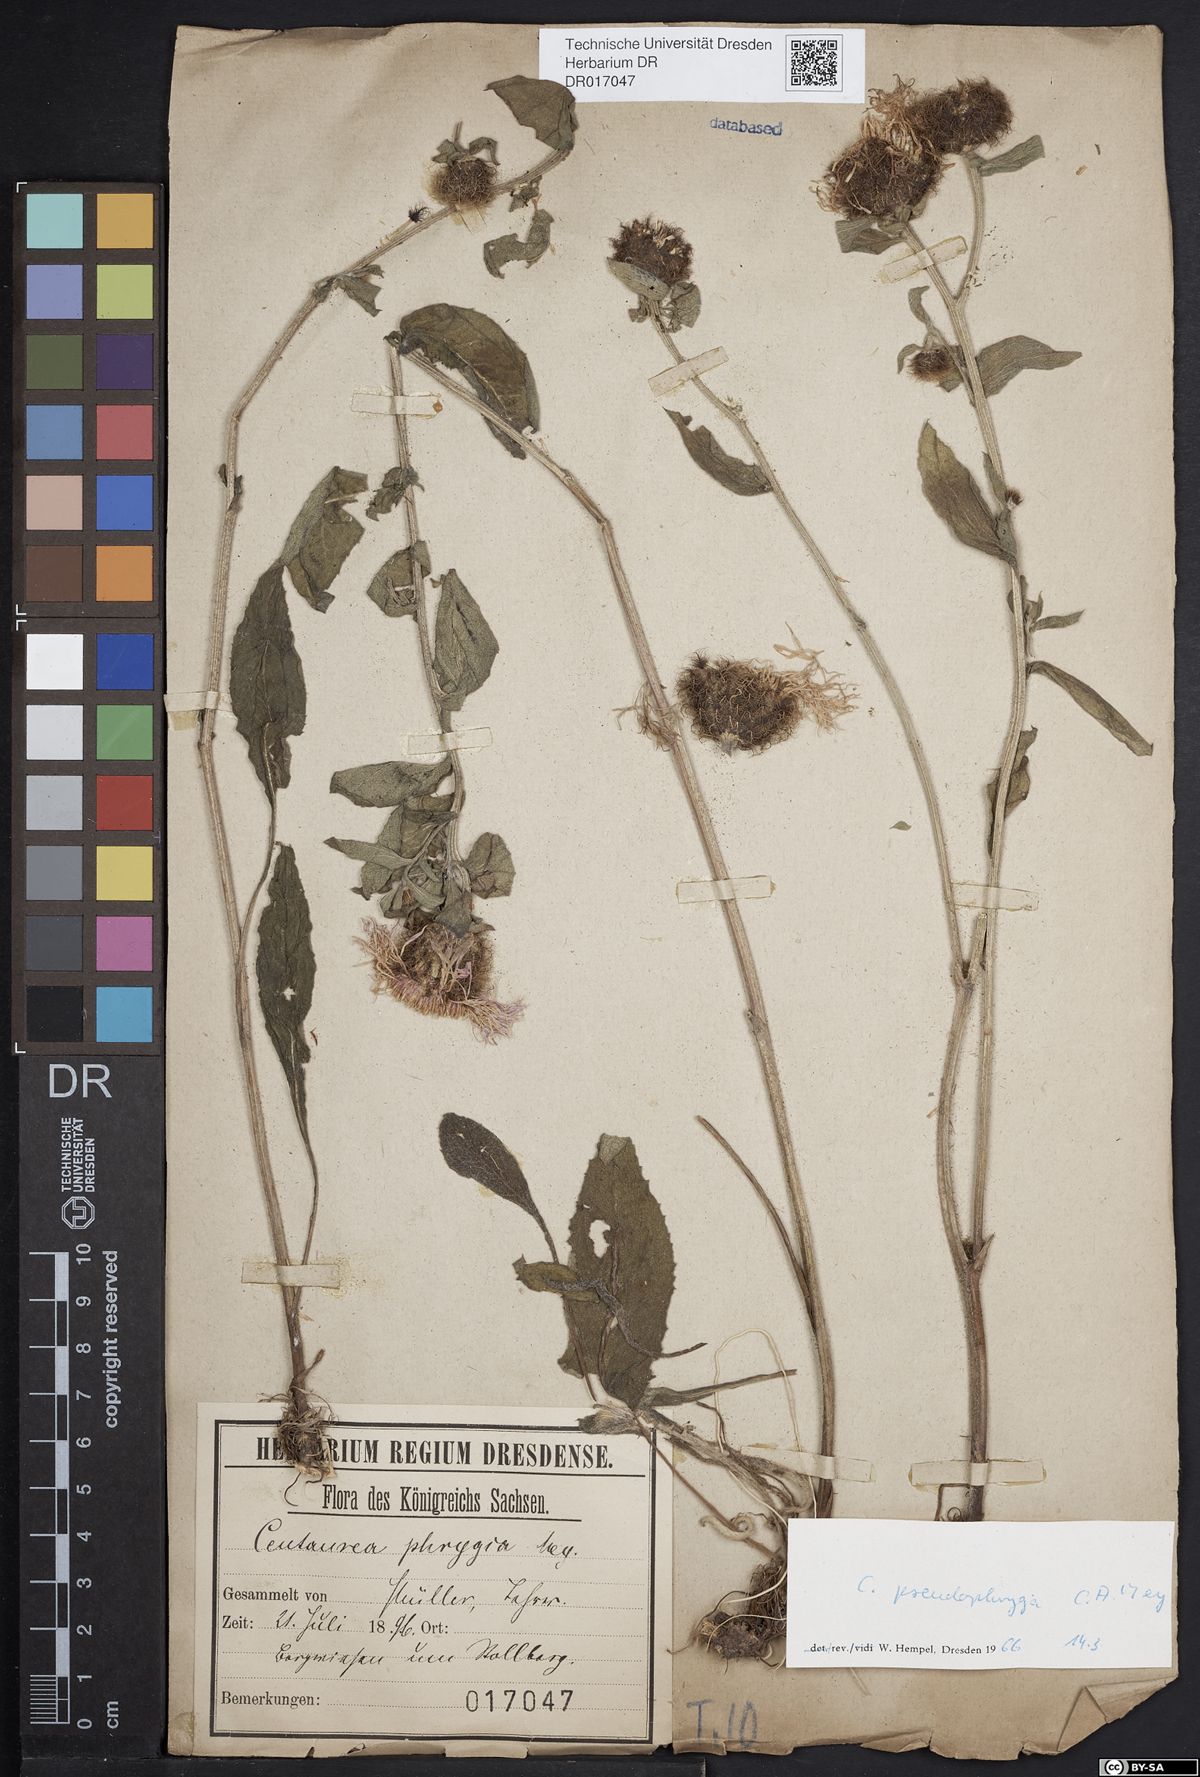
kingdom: Plantae
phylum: Tracheophyta
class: Magnoliopsida
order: Asterales
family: Asteraceae
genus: Centaurea
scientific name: Centaurea pseudophrygia
